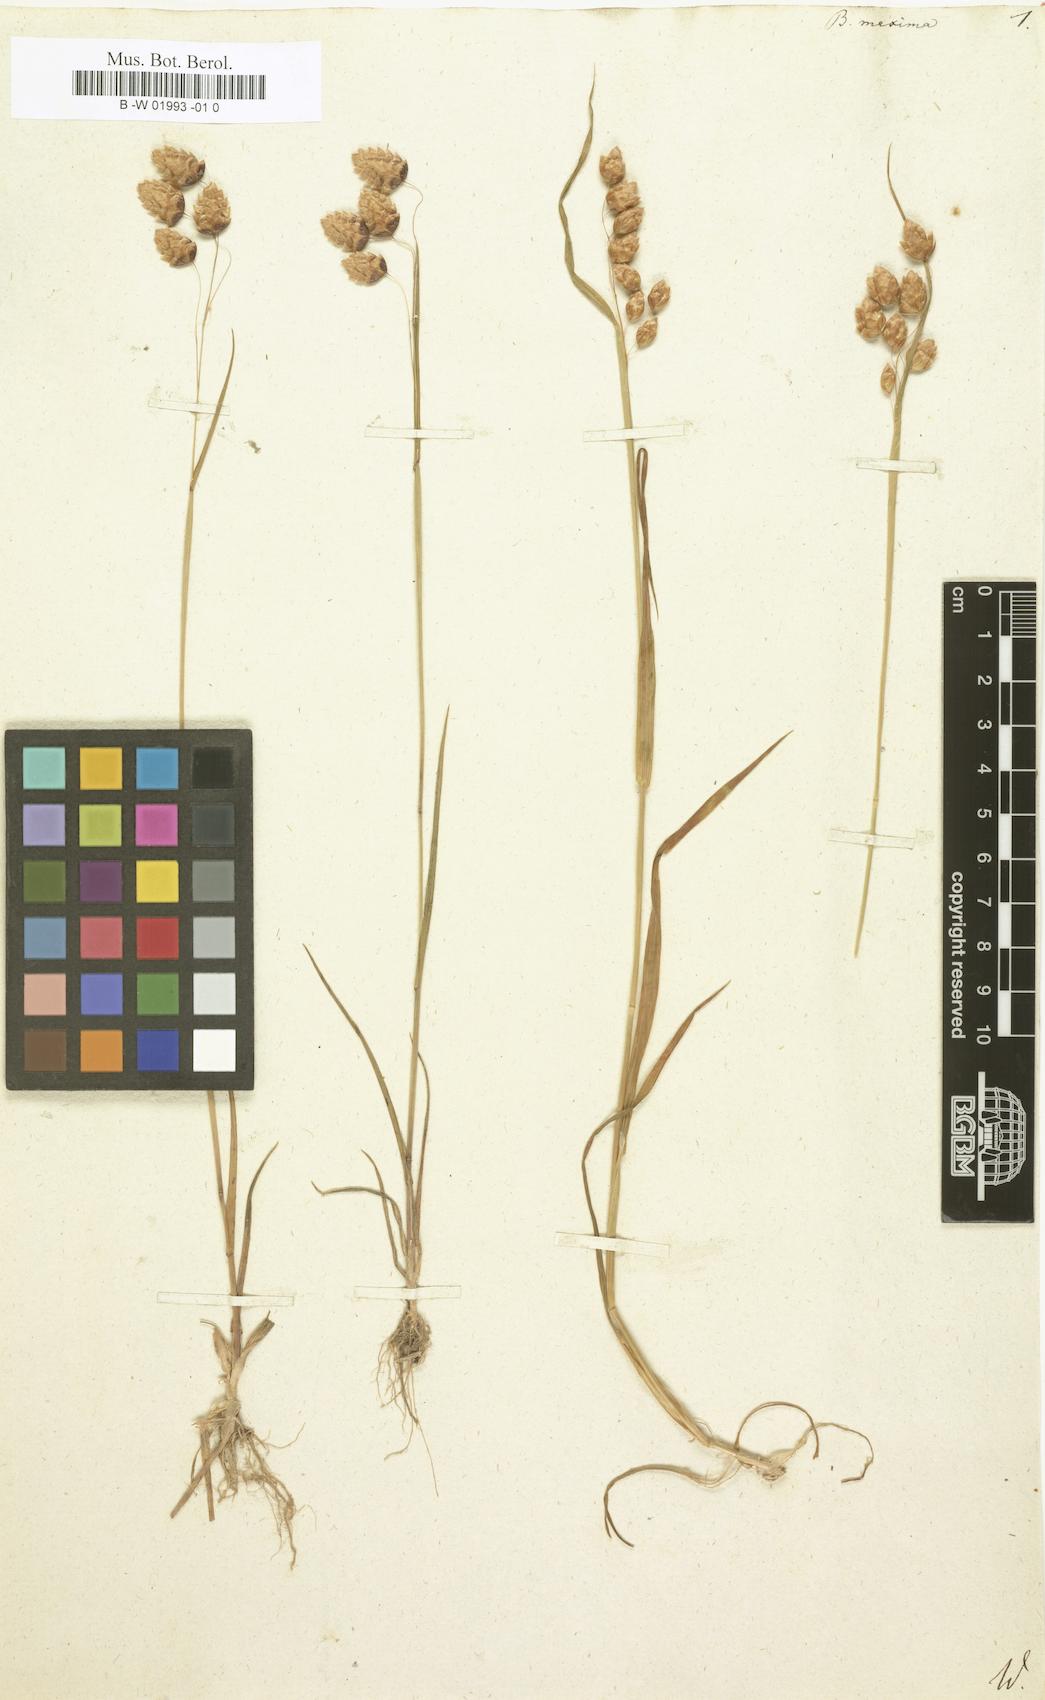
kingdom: Plantae
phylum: Tracheophyta
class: Liliopsida
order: Poales
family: Poaceae
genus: Briza
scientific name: Briza maxima
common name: Big quakinggrass
